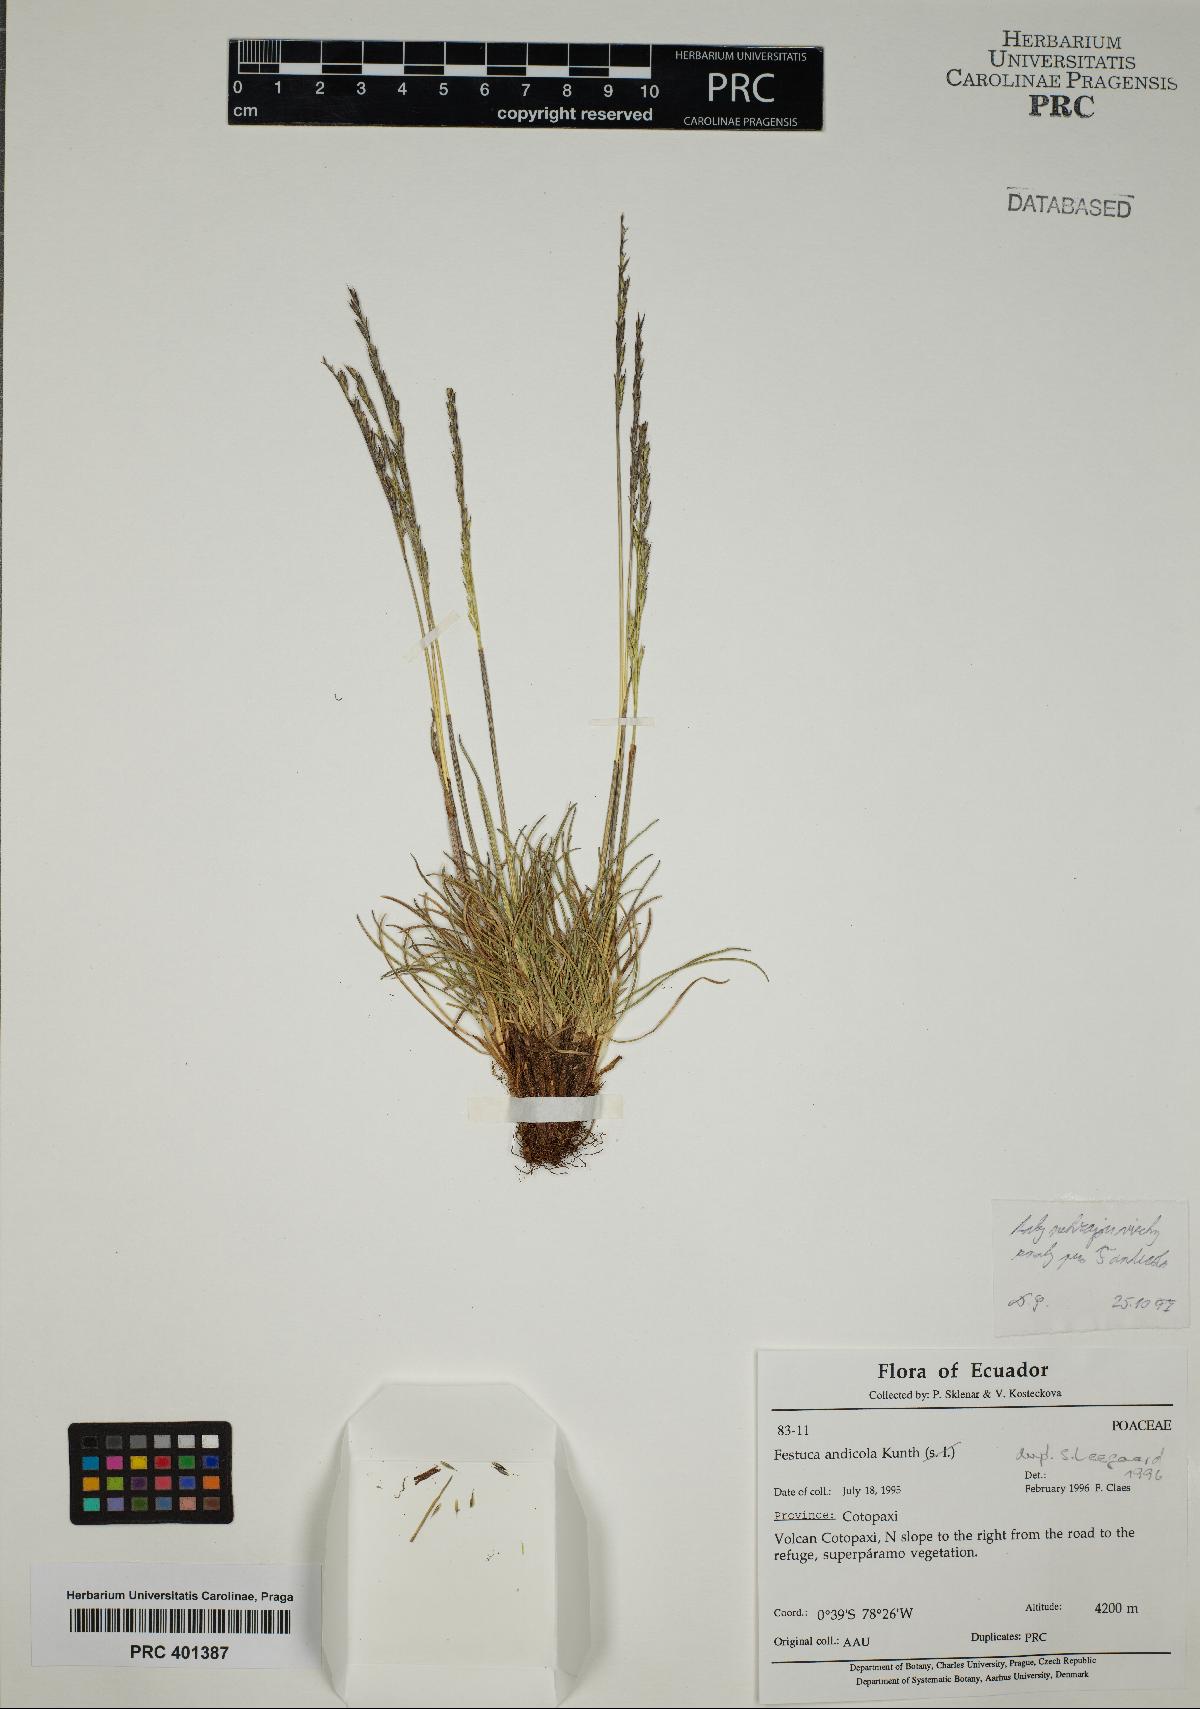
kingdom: Plantae
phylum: Tracheophyta
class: Liliopsida
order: Poales
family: Poaceae
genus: Festuca
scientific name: Festuca andicola
